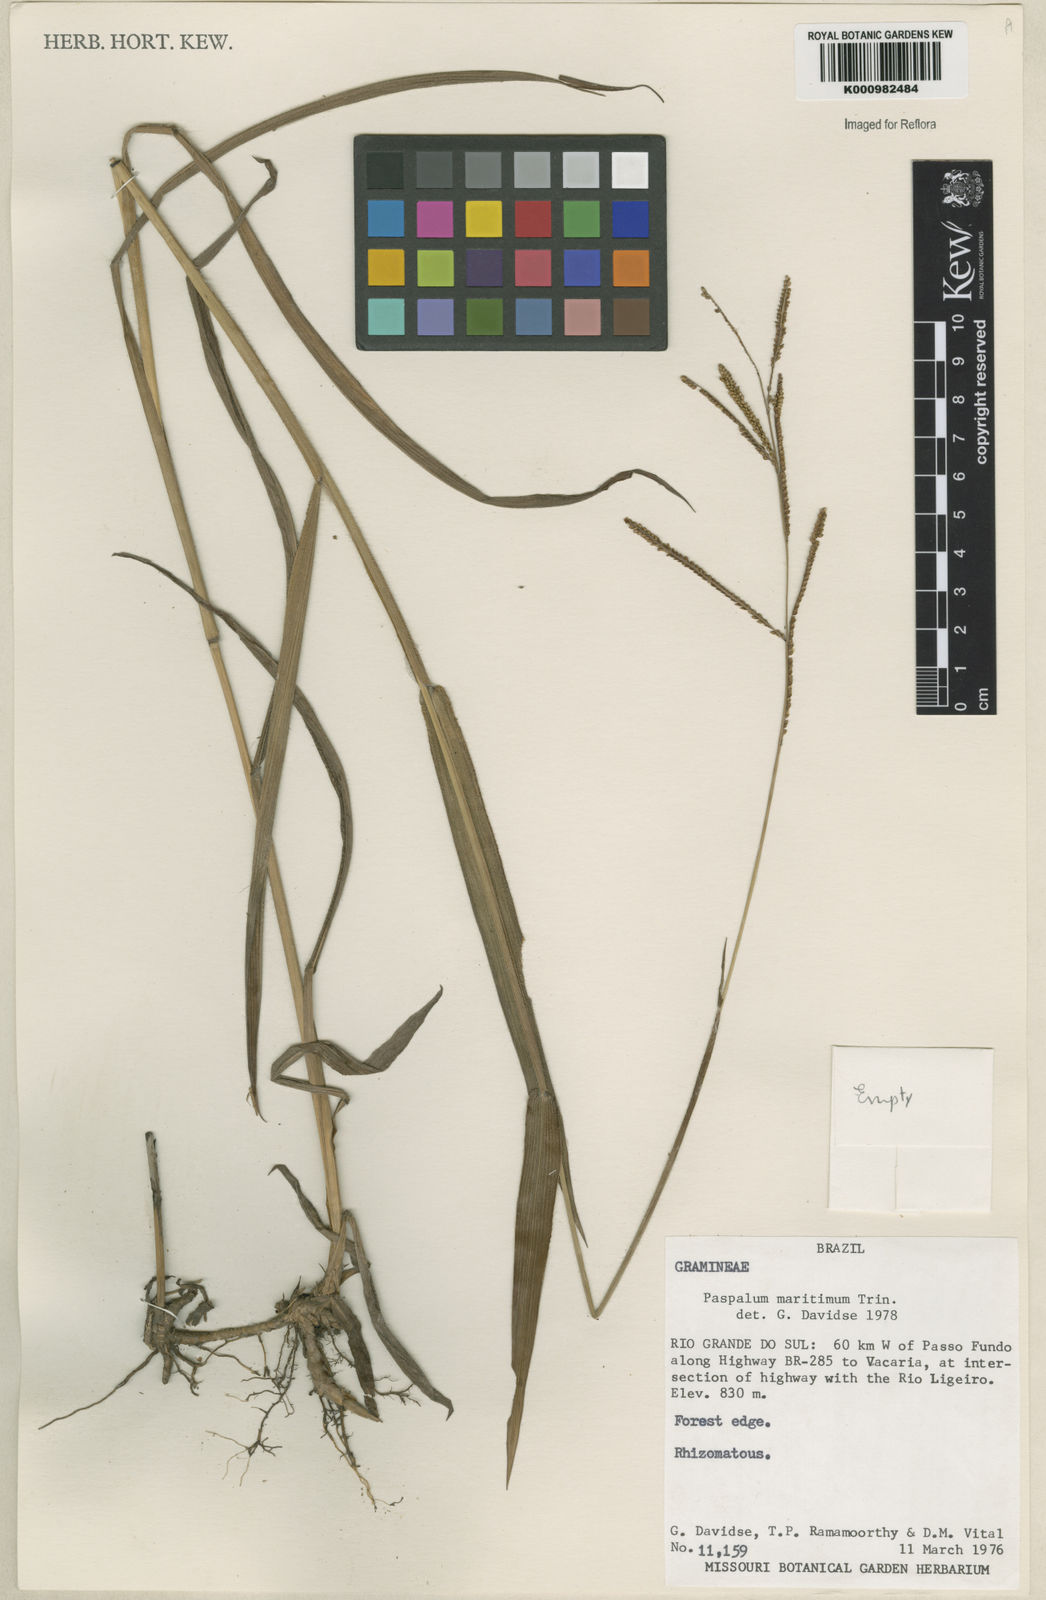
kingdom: Plantae
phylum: Tracheophyta
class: Liliopsida
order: Poales
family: Poaceae
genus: Paspalum
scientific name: Paspalum maritimum
